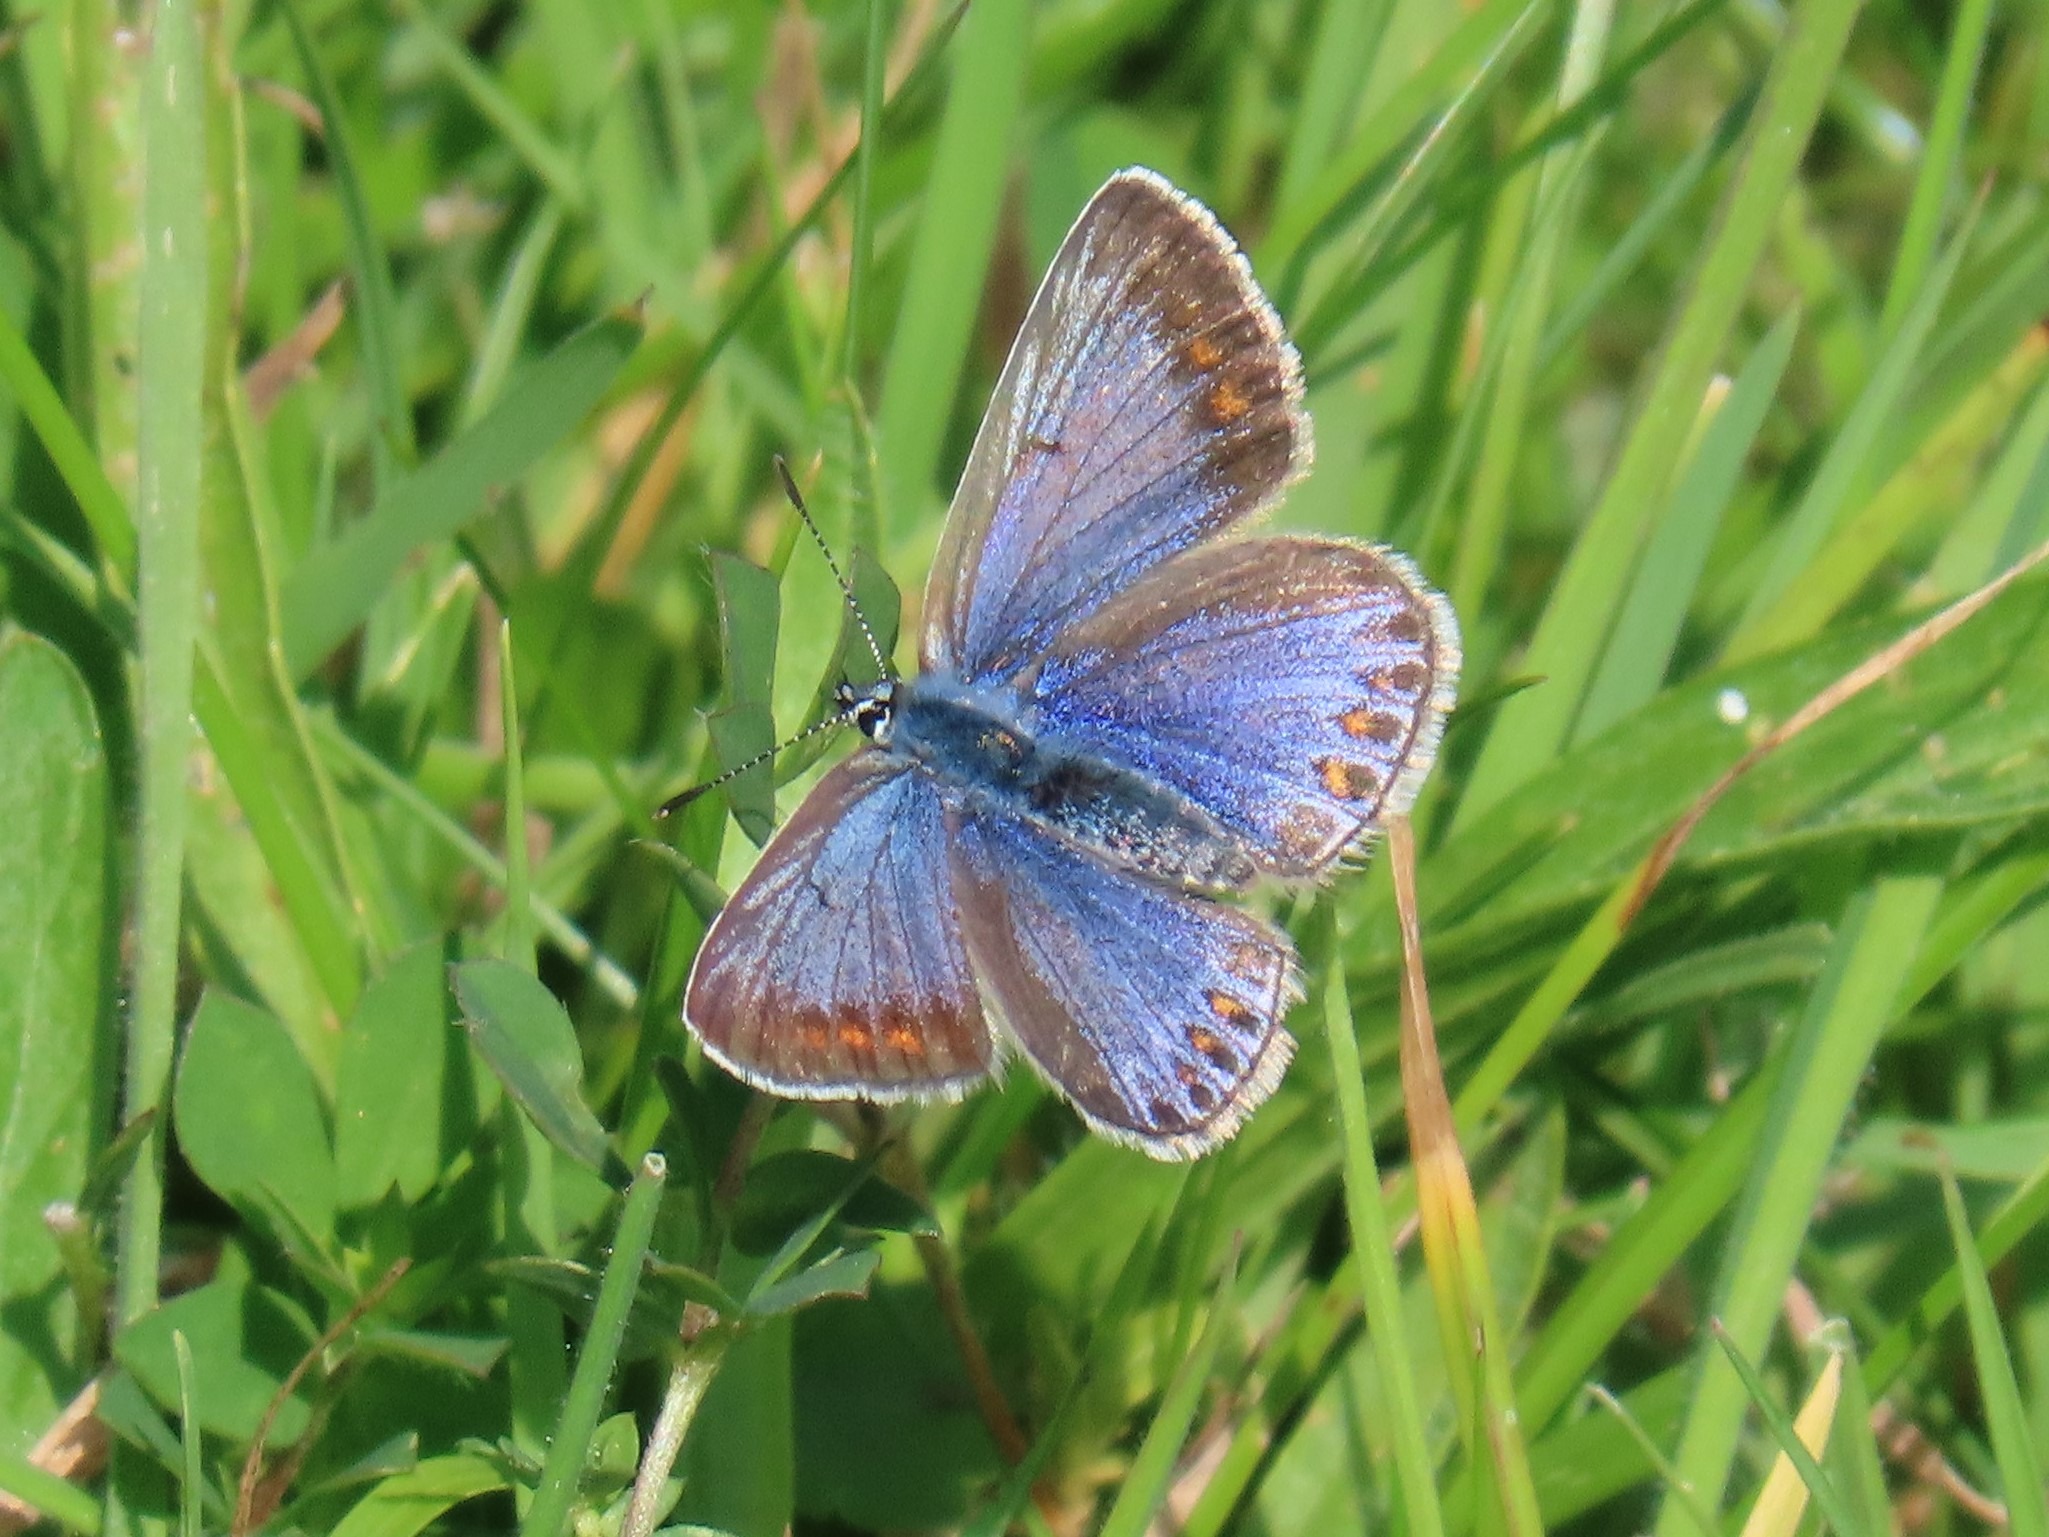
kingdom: Animalia
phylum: Arthropoda
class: Insecta
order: Lepidoptera
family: Lycaenidae
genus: Polyommatus
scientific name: Polyommatus icarus
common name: Almindelig blåfugl
